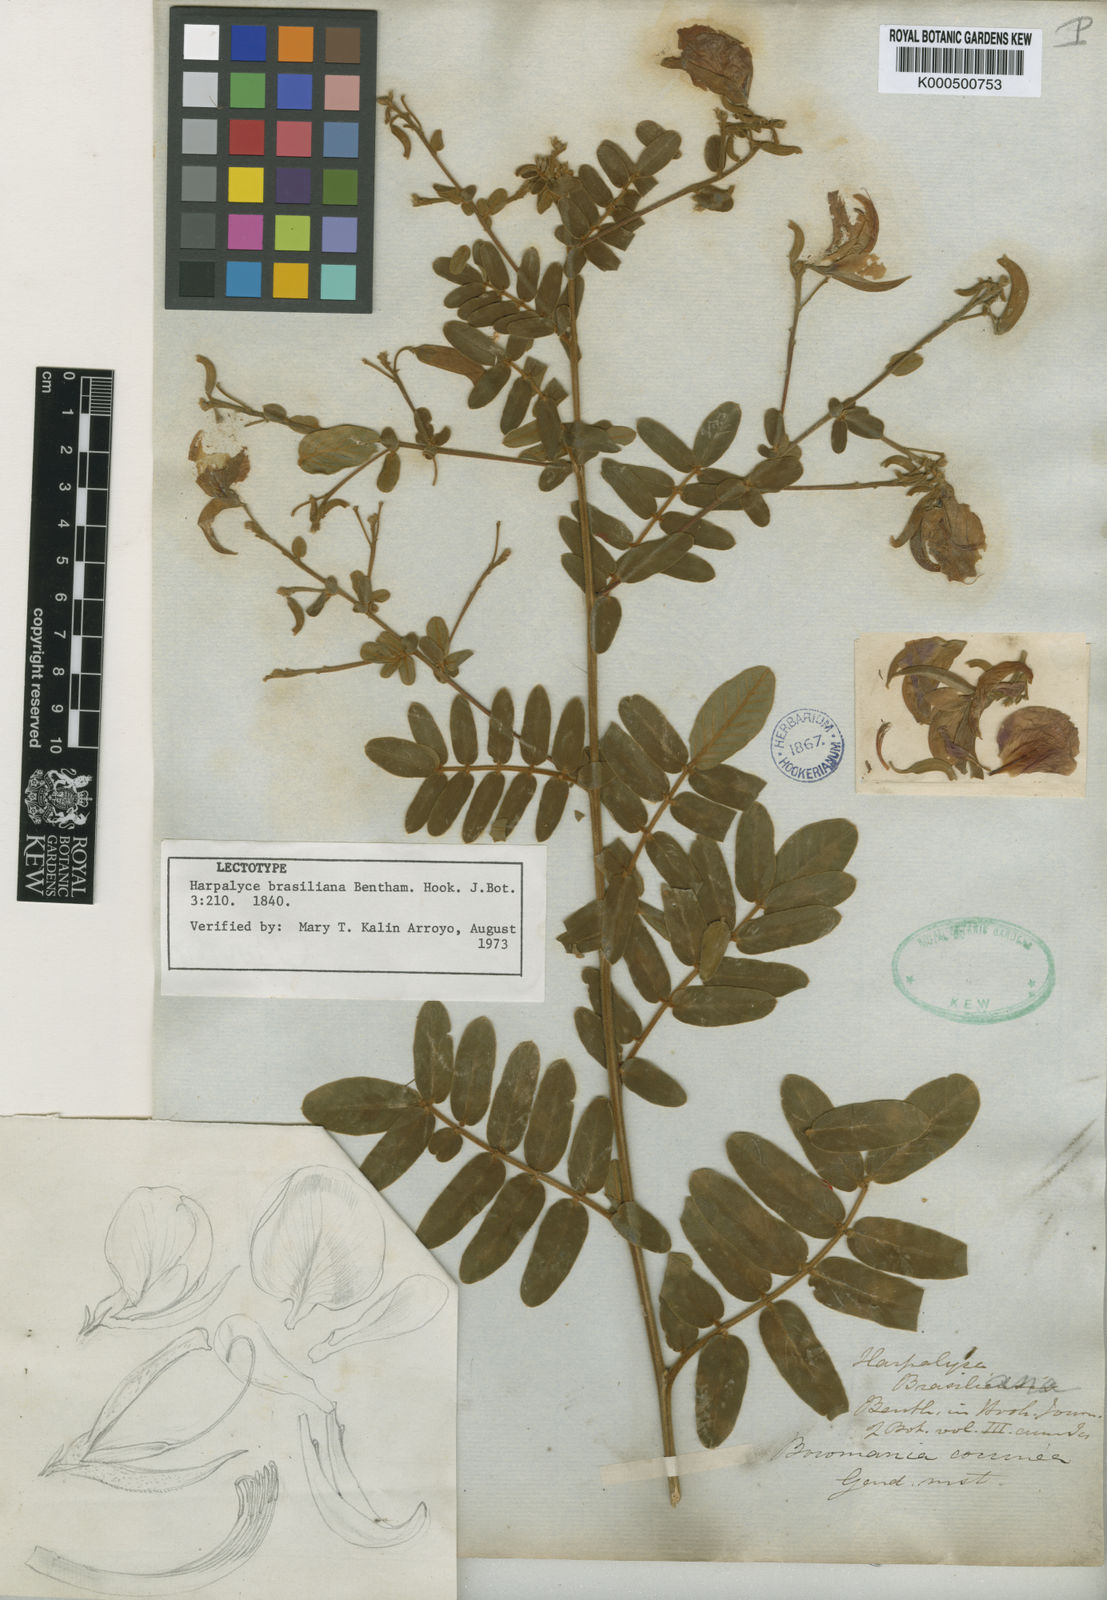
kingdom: Plantae
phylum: Tracheophyta
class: Magnoliopsida
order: Fabales
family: Fabaceae
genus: Harpalyce
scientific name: Harpalyce brasiliana
